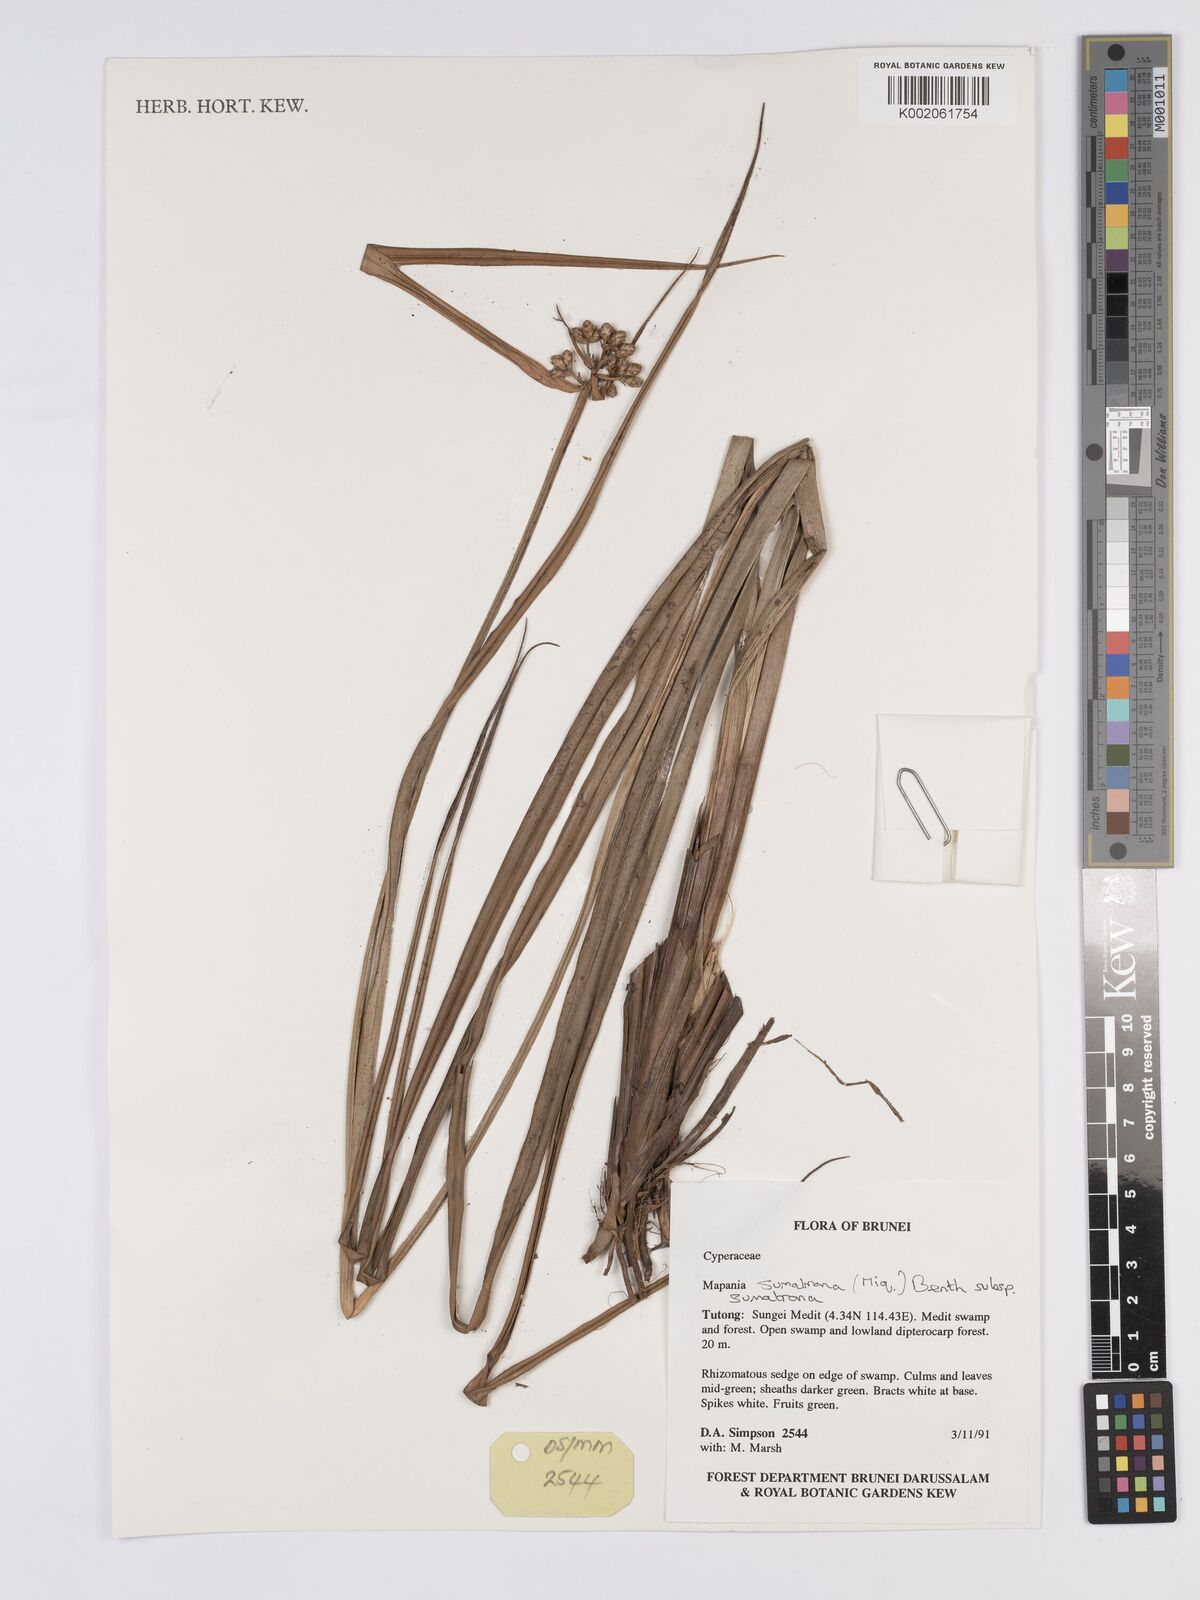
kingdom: Plantae
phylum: Tracheophyta
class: Liliopsida
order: Poales
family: Cyperaceae
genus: Mapania
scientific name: Mapania sumatrana
